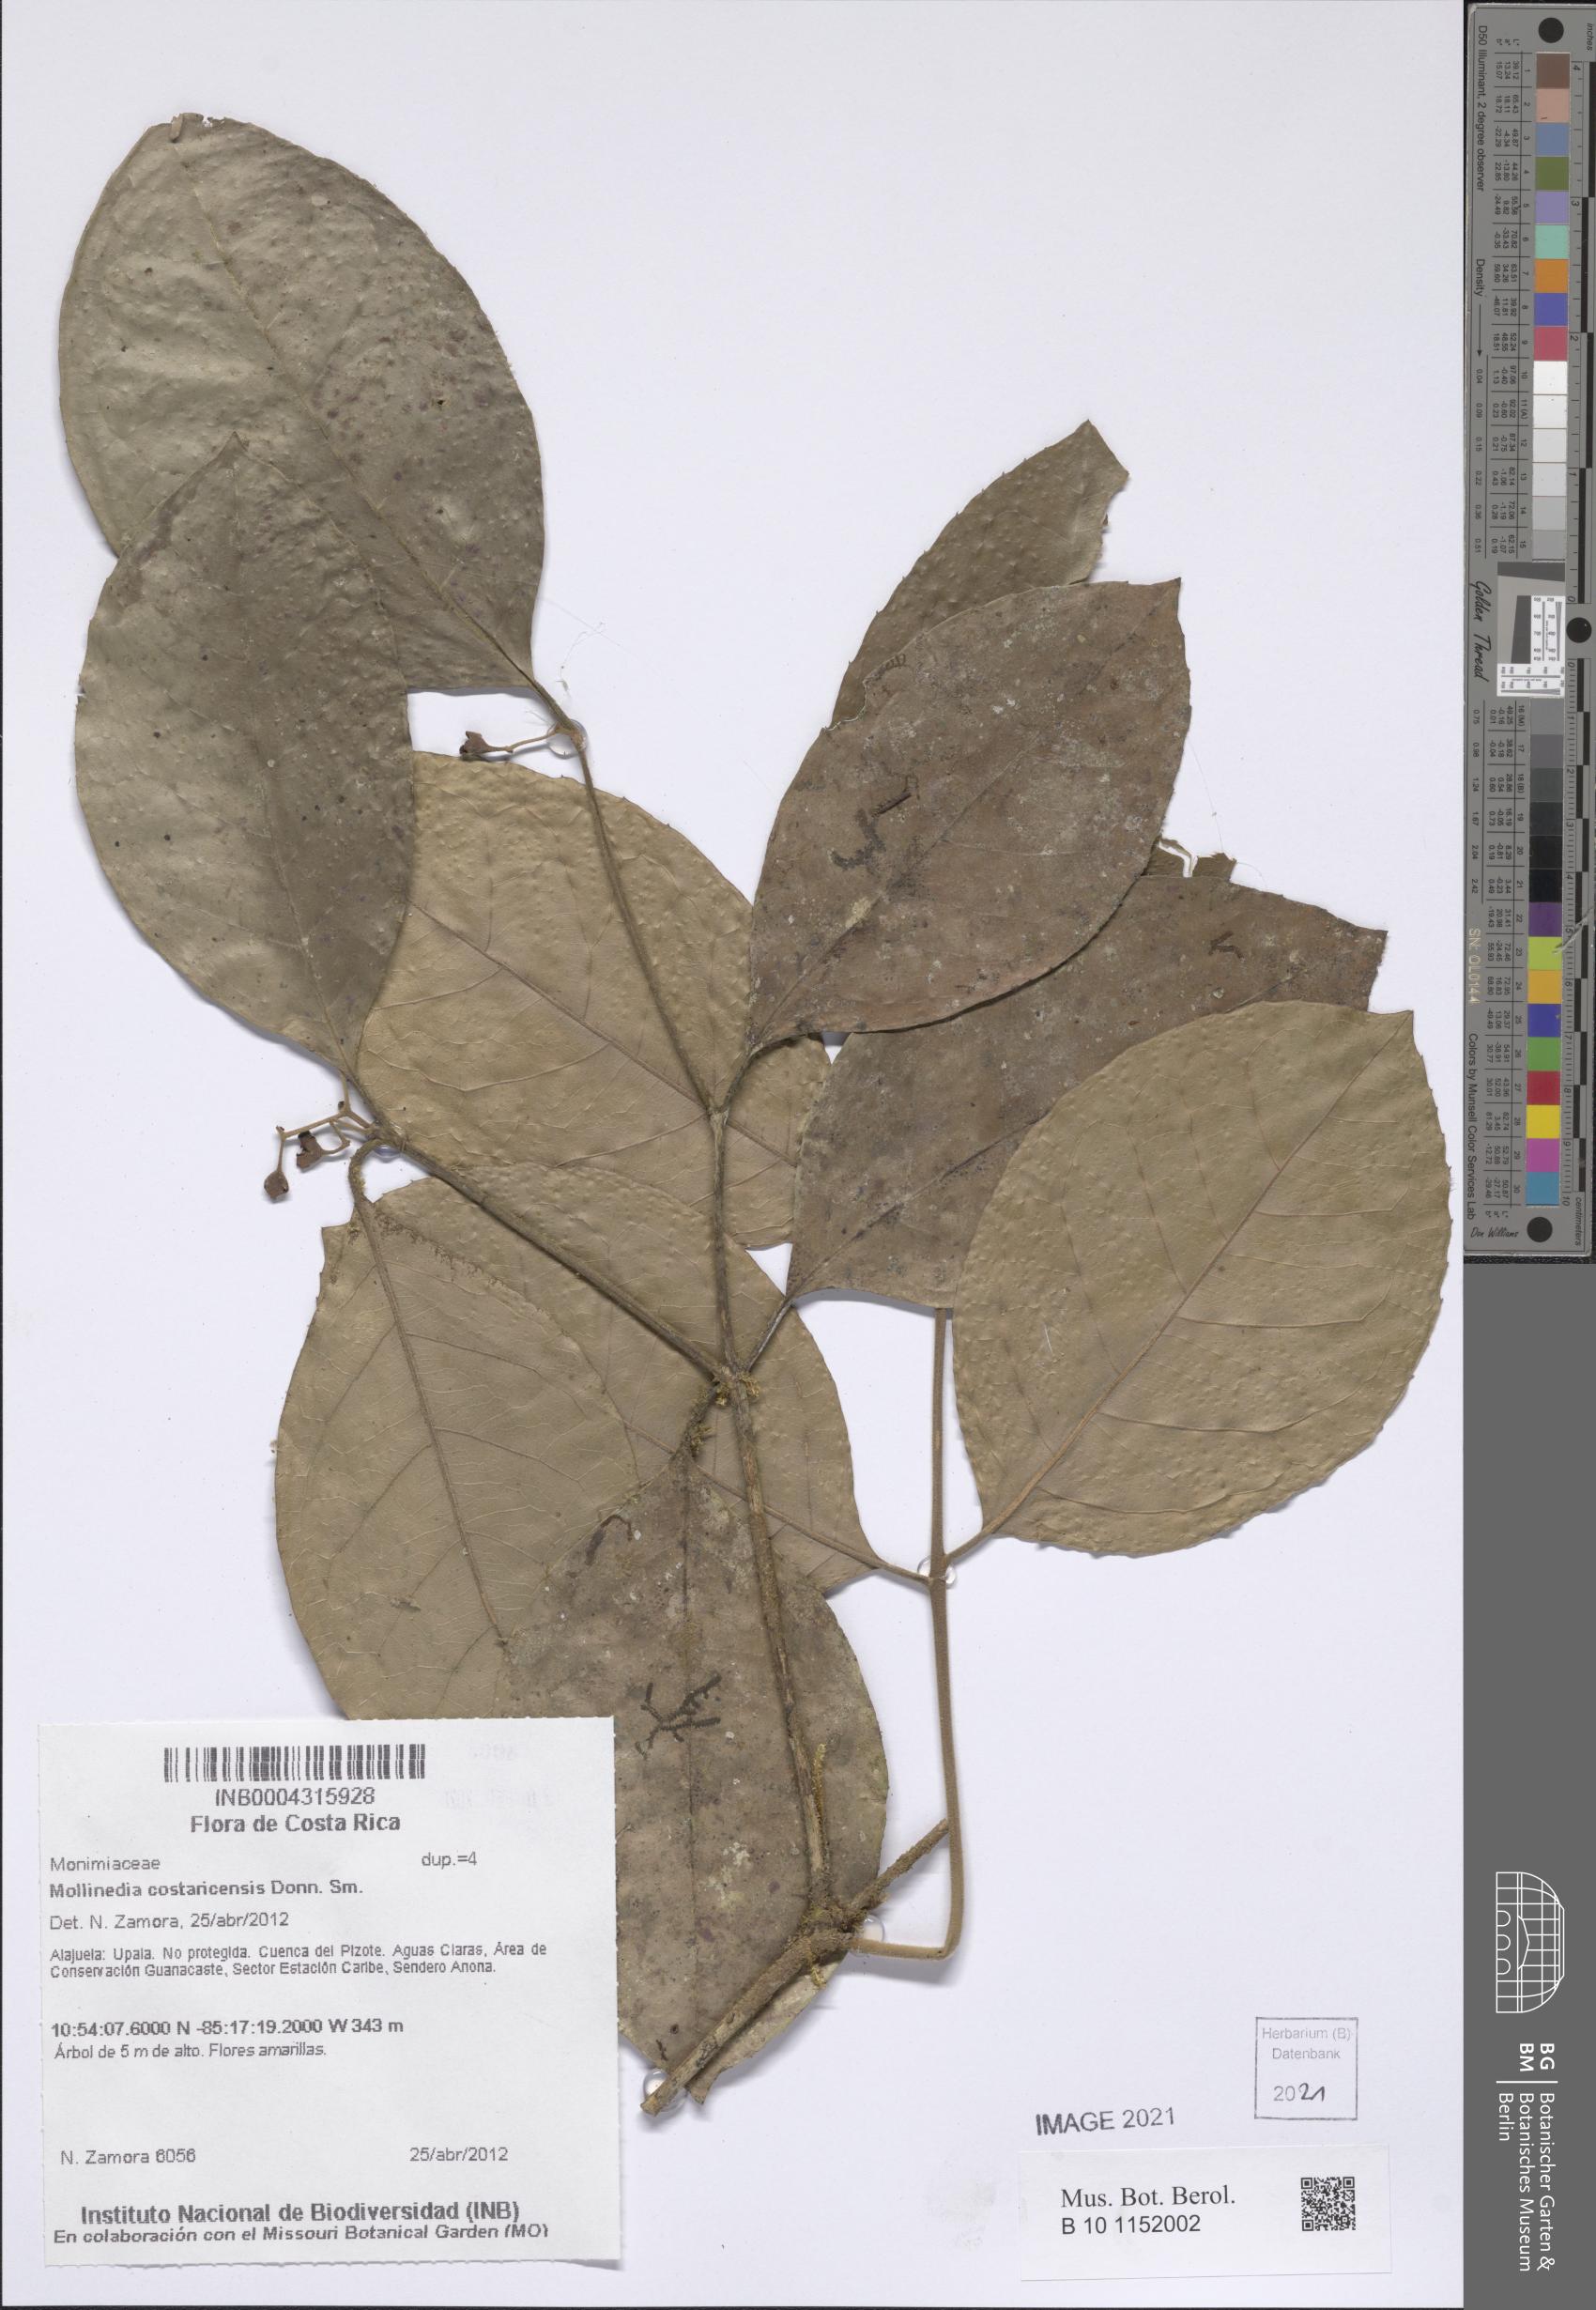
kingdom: Plantae
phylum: Tracheophyta
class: Magnoliopsida
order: Laurales
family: Monimiaceae
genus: Mollinedia
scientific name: Mollinedia costaricensis
